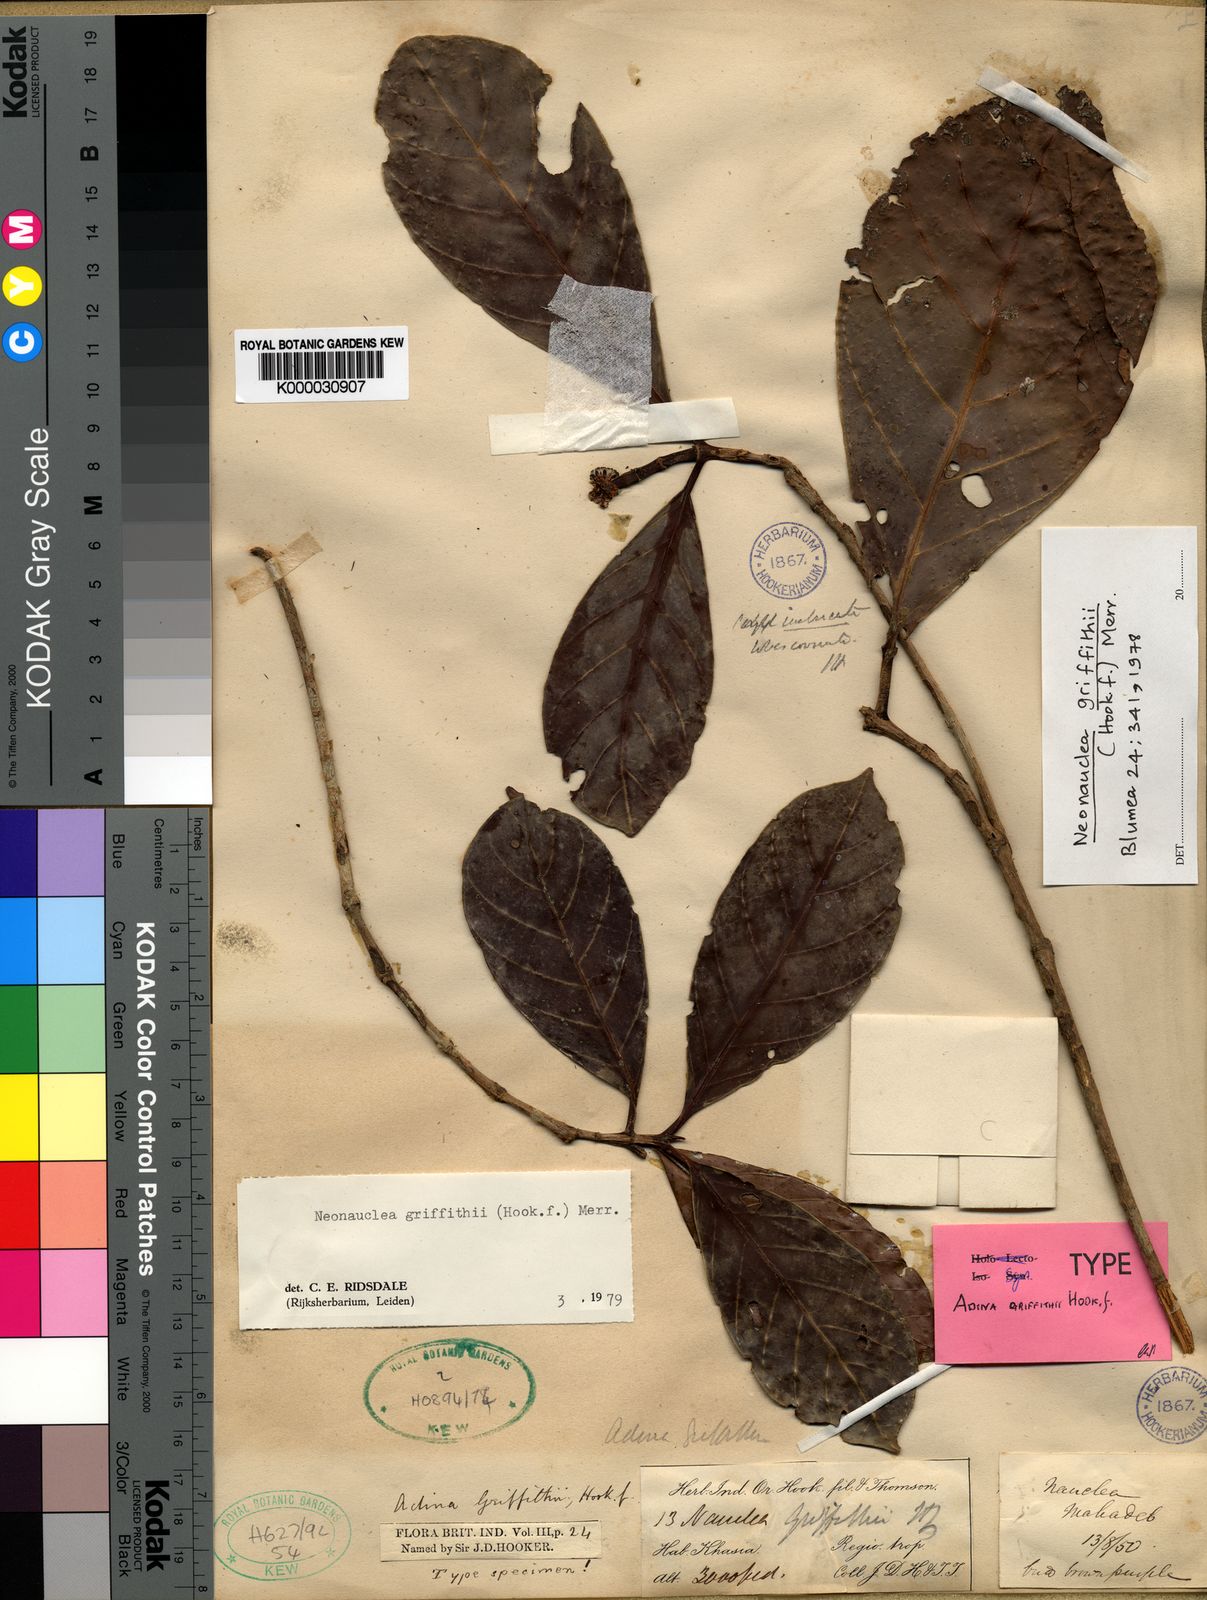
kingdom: Plantae
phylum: Tracheophyta
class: Magnoliopsida
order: Gentianales
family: Rubiaceae
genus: Neonauclea
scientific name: Neonauclea griffithii
